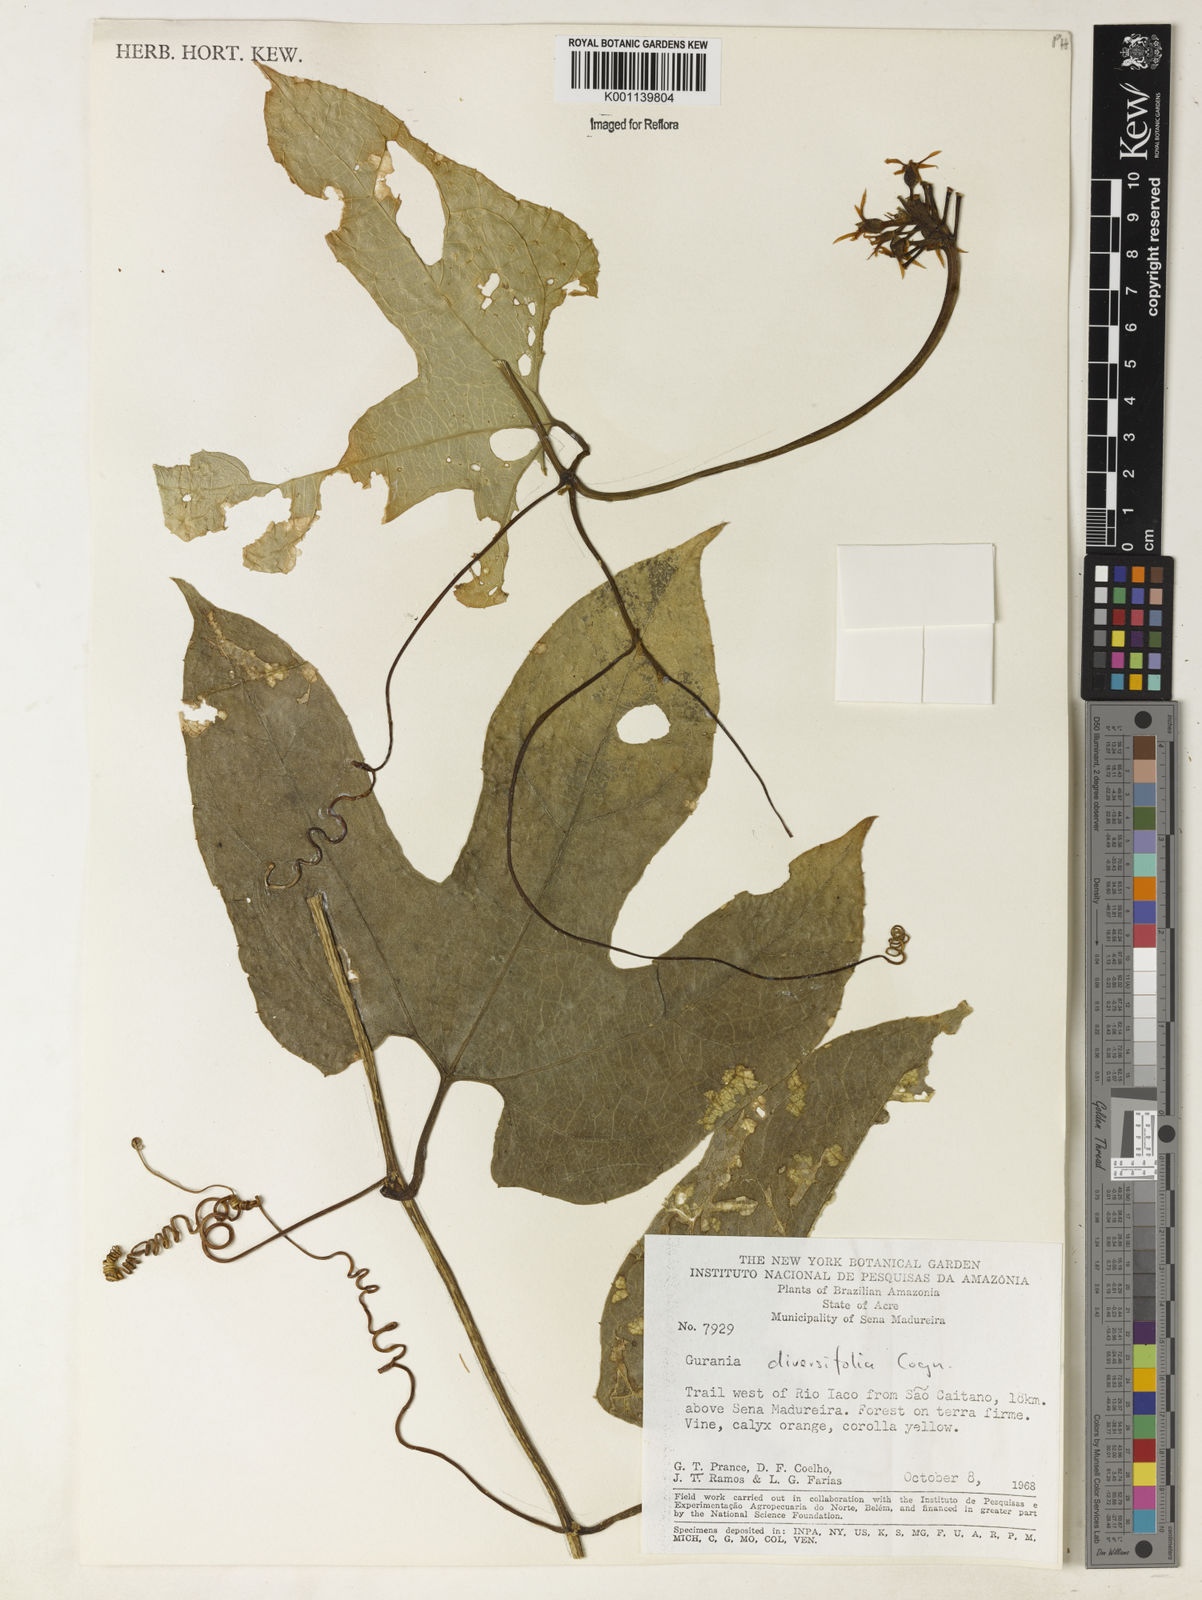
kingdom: Plantae
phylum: Tracheophyta
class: Magnoliopsida
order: Cucurbitales
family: Cucurbitaceae
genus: Gurania
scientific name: Gurania acuminata
